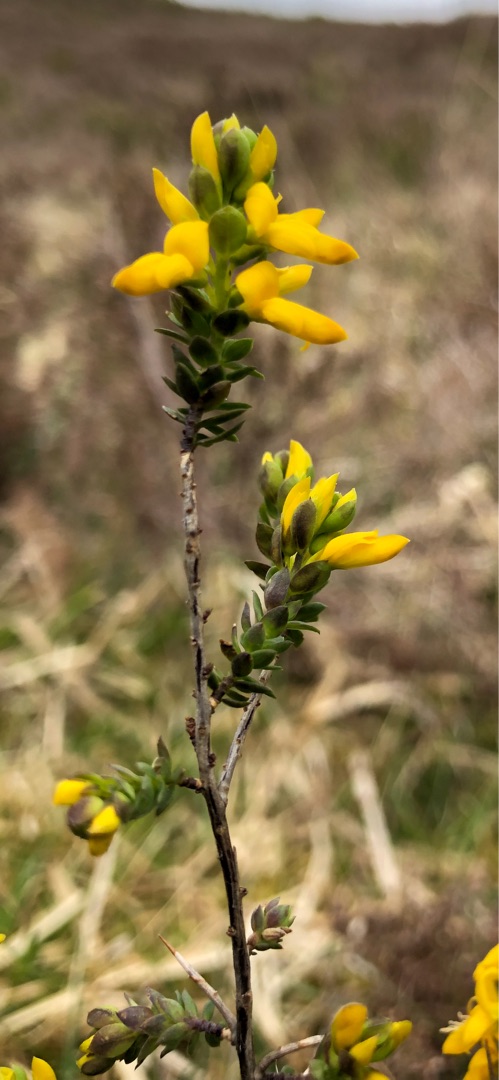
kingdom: Plantae
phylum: Tracheophyta
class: Magnoliopsida
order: Fabales
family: Fabaceae
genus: Genista
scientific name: Genista anglica
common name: Engelsk visse
